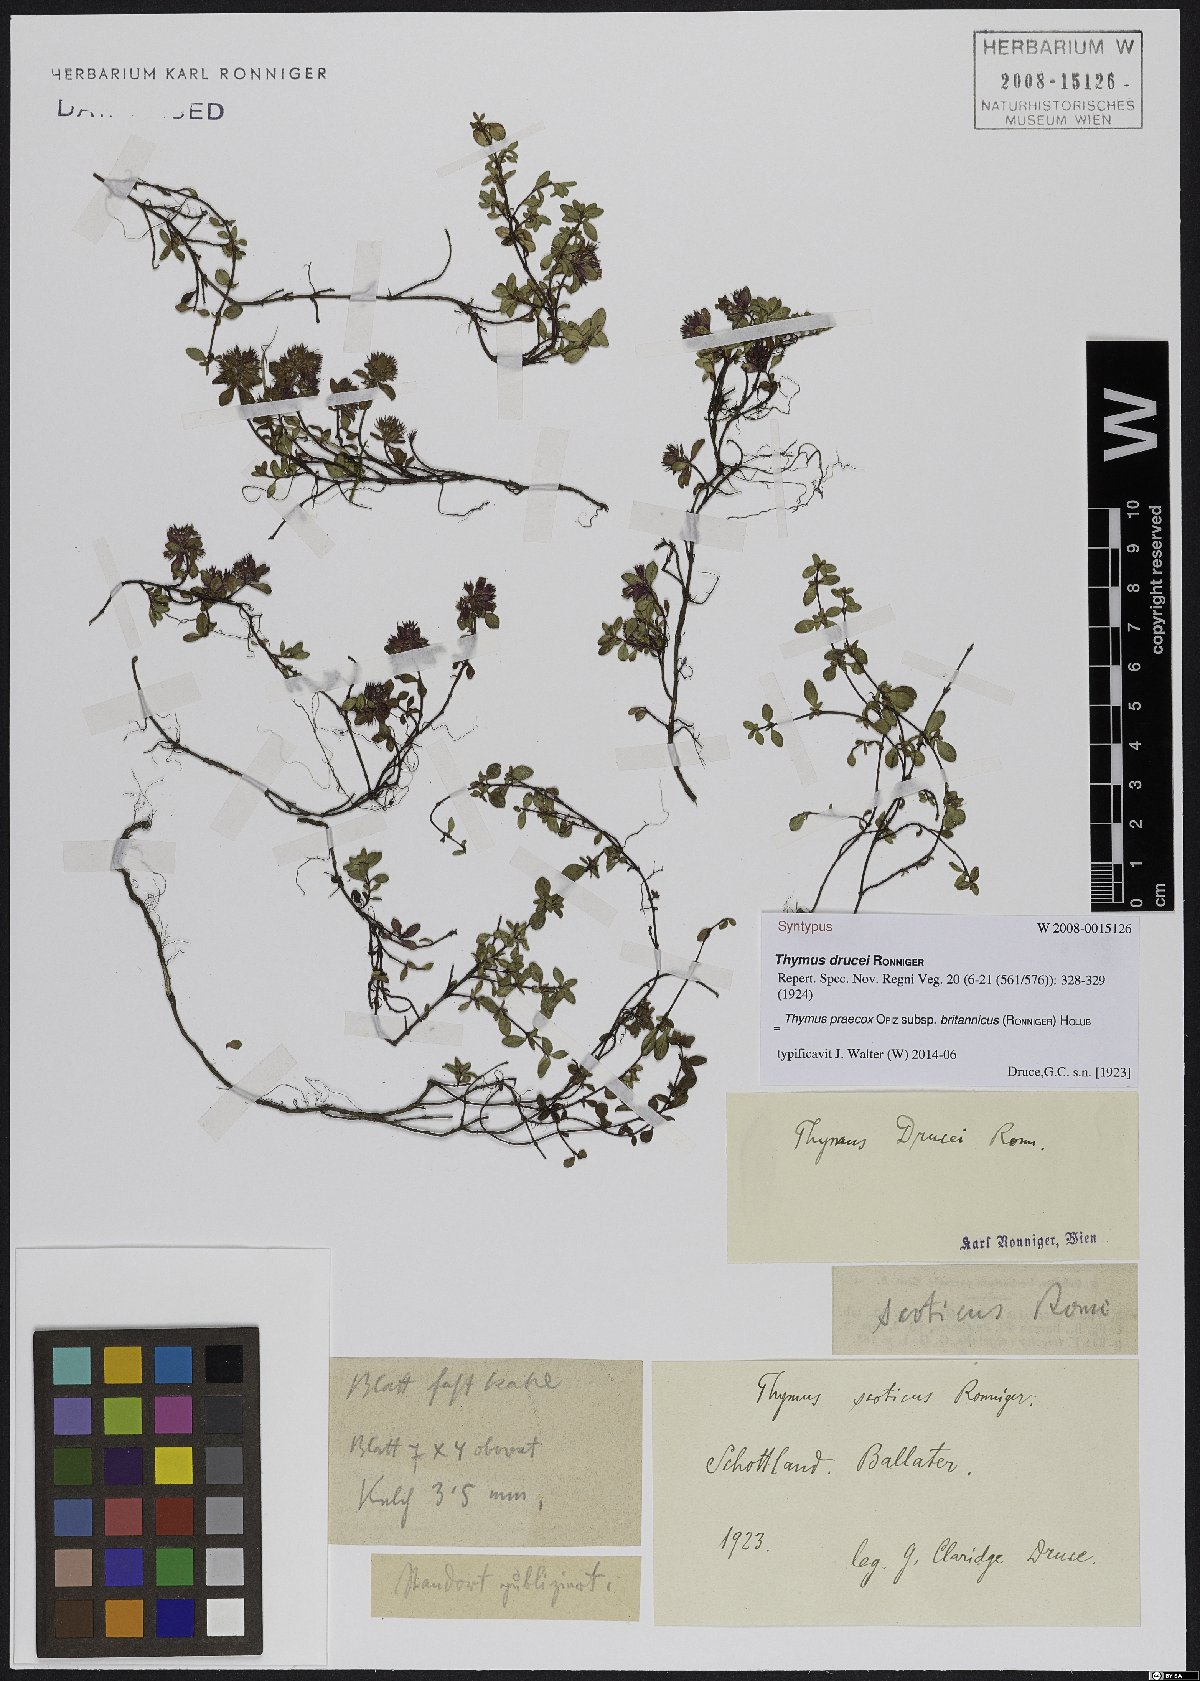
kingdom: Plantae
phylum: Tracheophyta
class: Magnoliopsida
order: Lamiales
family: Lamiaceae
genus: Thymus
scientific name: Thymus praecox
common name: Wild thyme
